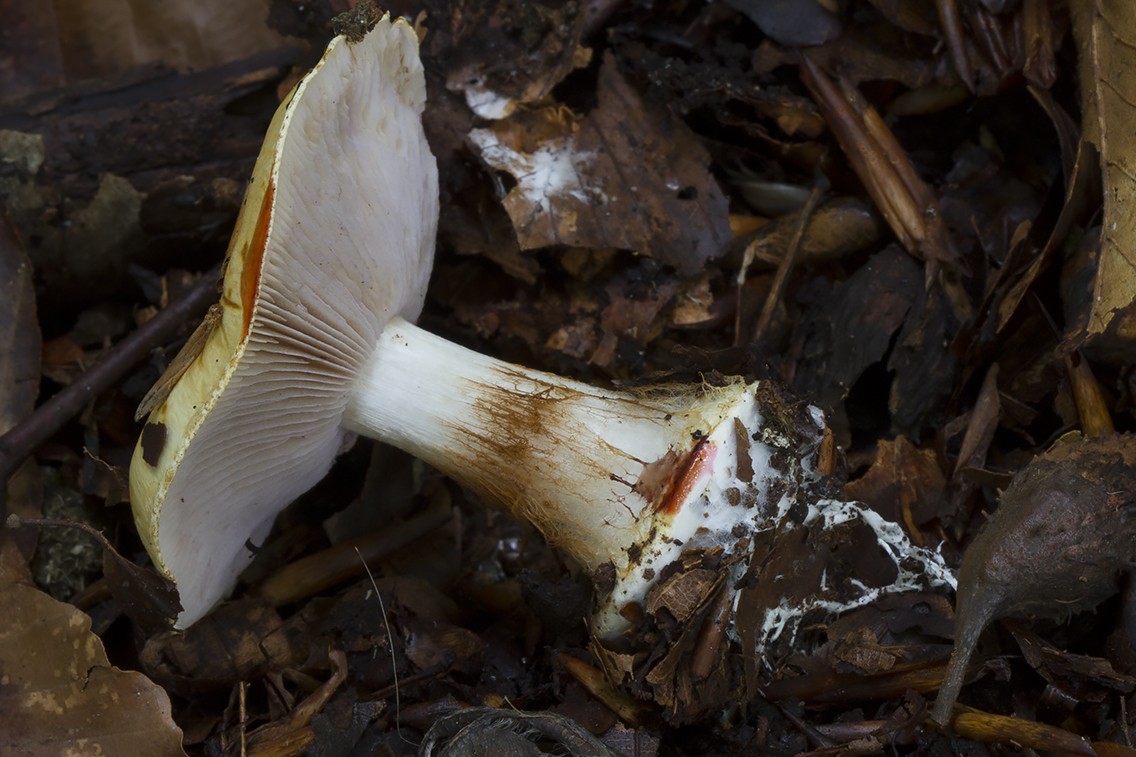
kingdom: Fungi
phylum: Basidiomycota
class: Agaricomycetes
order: Agaricales
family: Cortinariaceae
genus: Calonarius
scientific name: Calonarius catharinae
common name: Katrines slørhat
